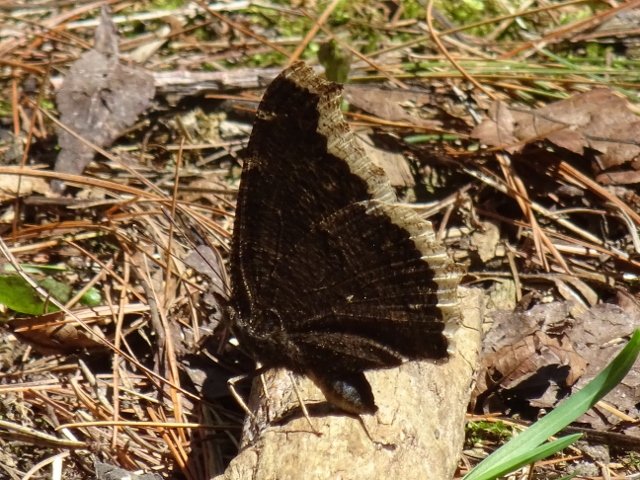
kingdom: Animalia
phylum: Arthropoda
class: Insecta
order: Lepidoptera
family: Nymphalidae
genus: Nymphalis
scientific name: Nymphalis antiopa
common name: Mourning Cloak
